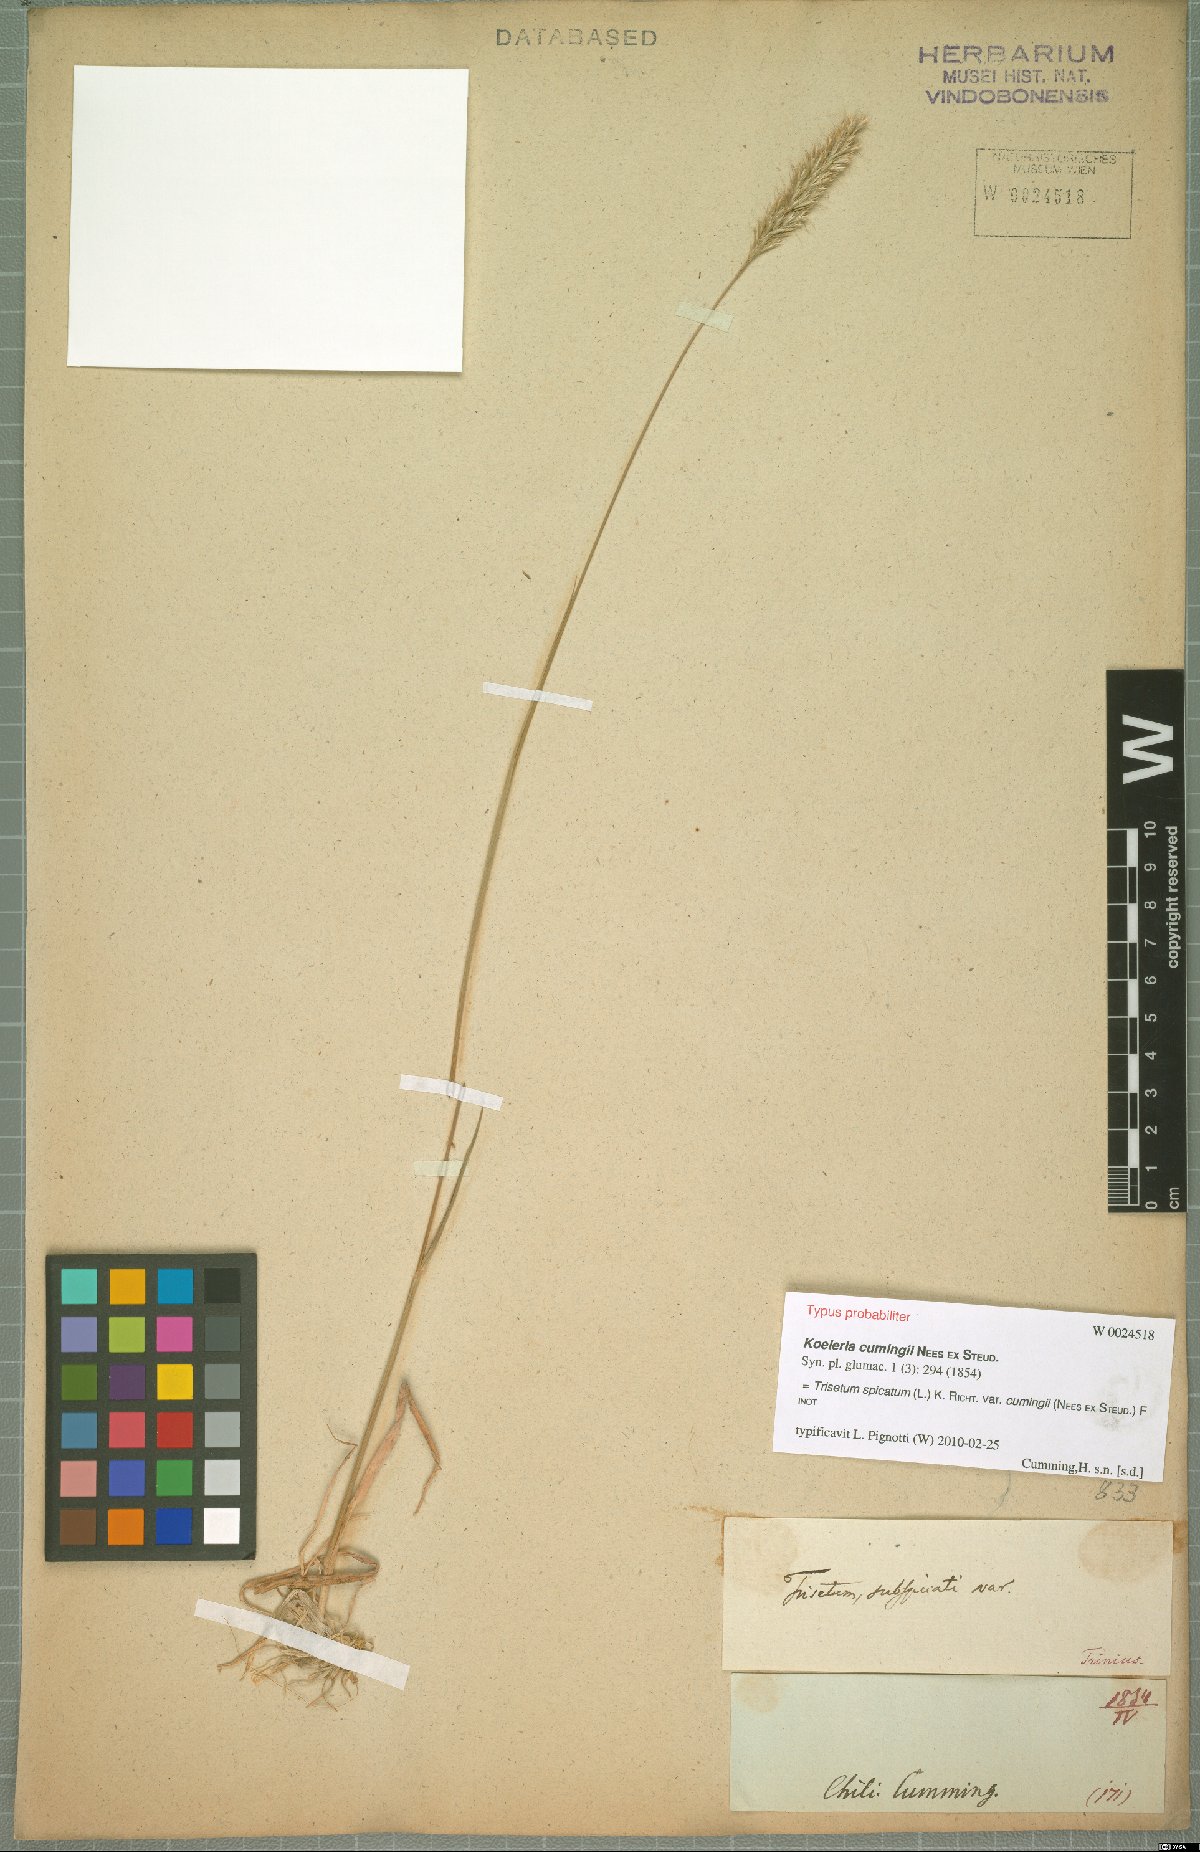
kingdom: Plantae
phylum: Tracheophyta
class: Liliopsida
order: Poales
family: Poaceae
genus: Koeleria
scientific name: Koeleria cumingii
